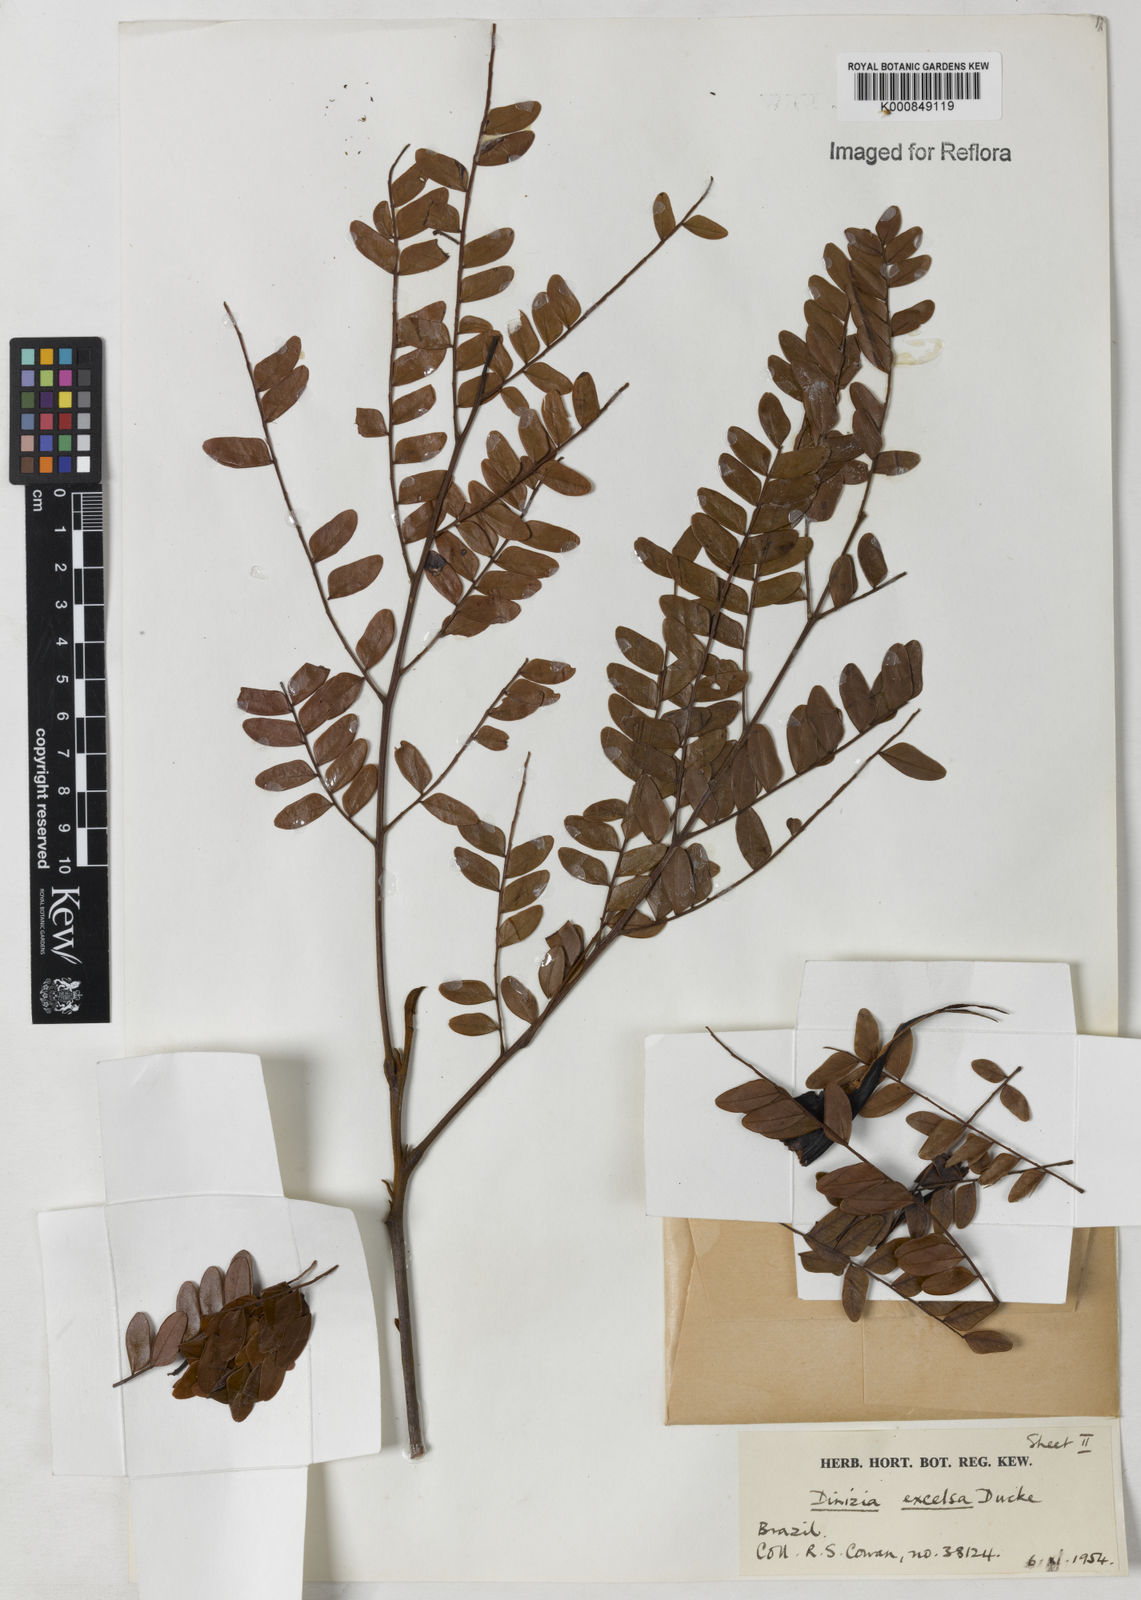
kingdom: Plantae
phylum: Tracheophyta
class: Magnoliopsida
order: Fabales
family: Fabaceae
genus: Dinizia
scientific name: Dinizia excelsa
